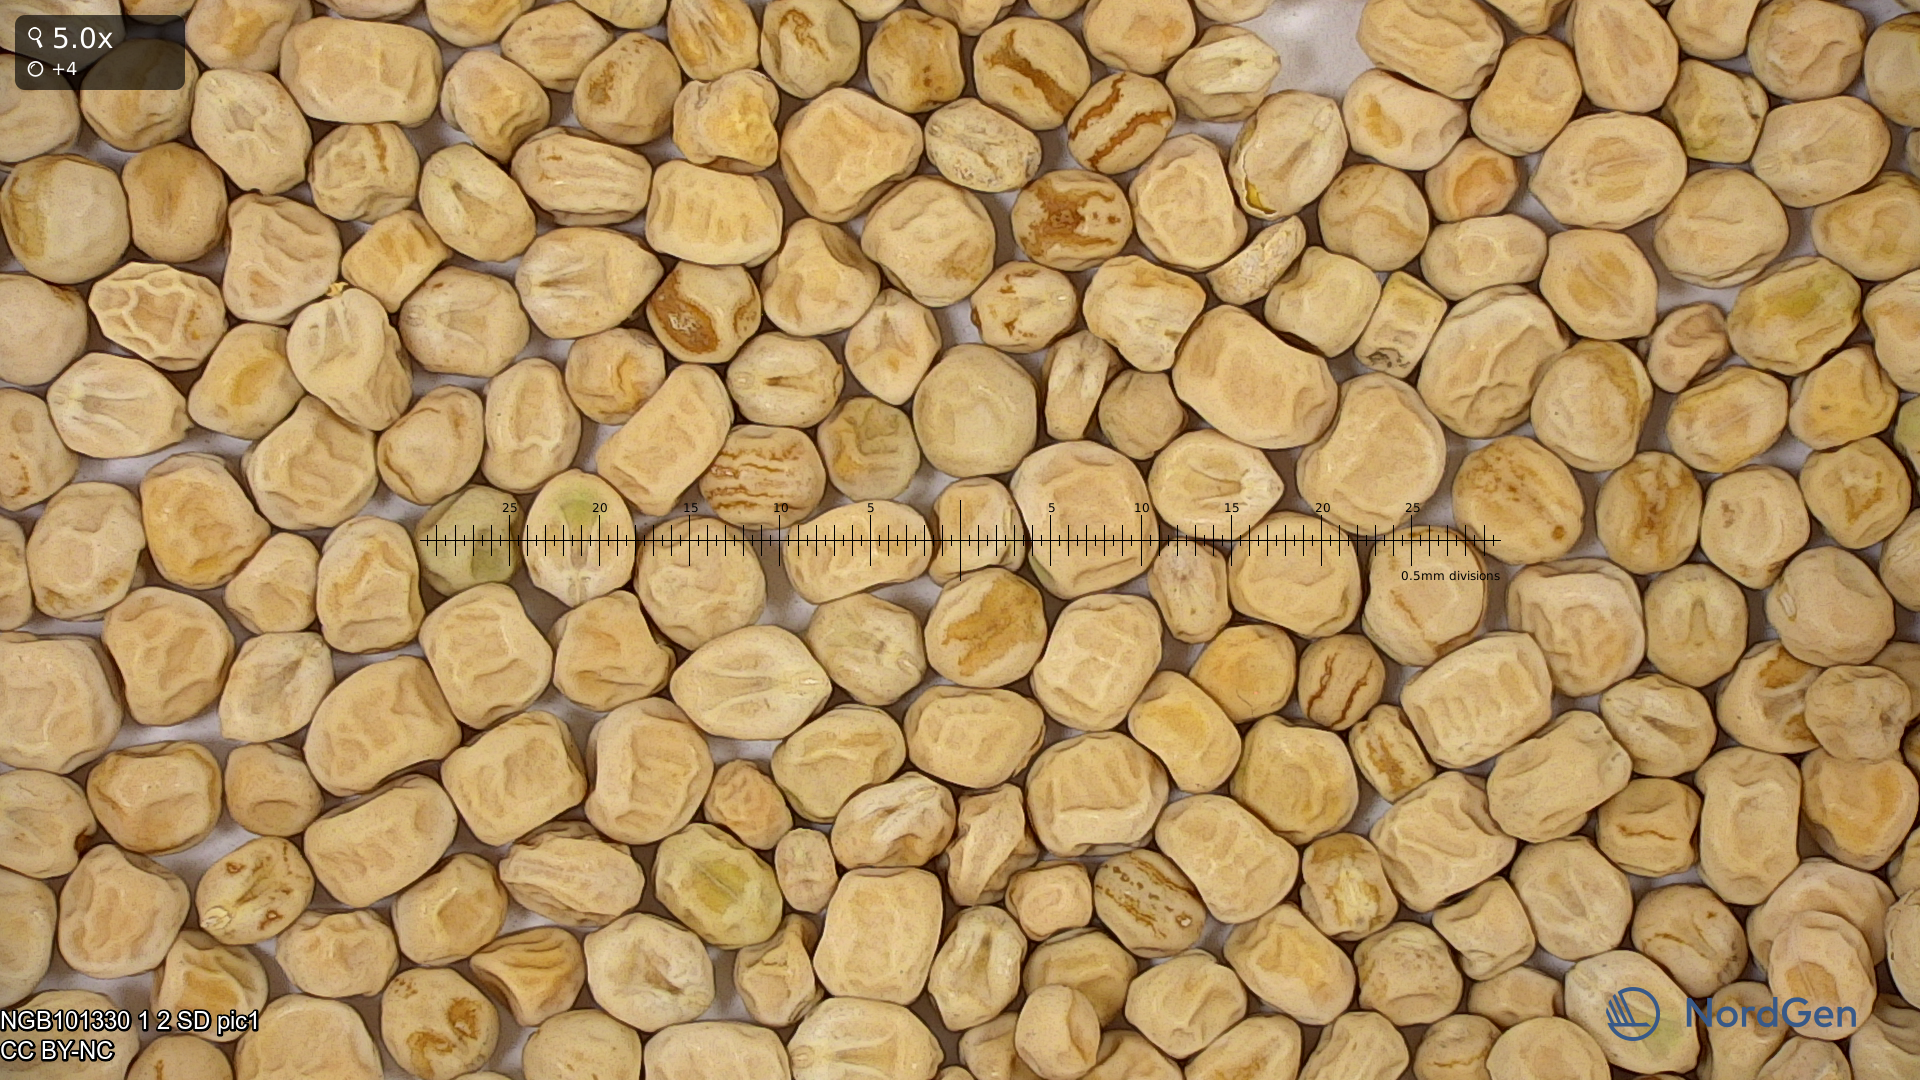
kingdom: Plantae
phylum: Tracheophyta
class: Magnoliopsida
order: Fabales
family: Fabaceae
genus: Lathyrus
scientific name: Lathyrus oleraceus
